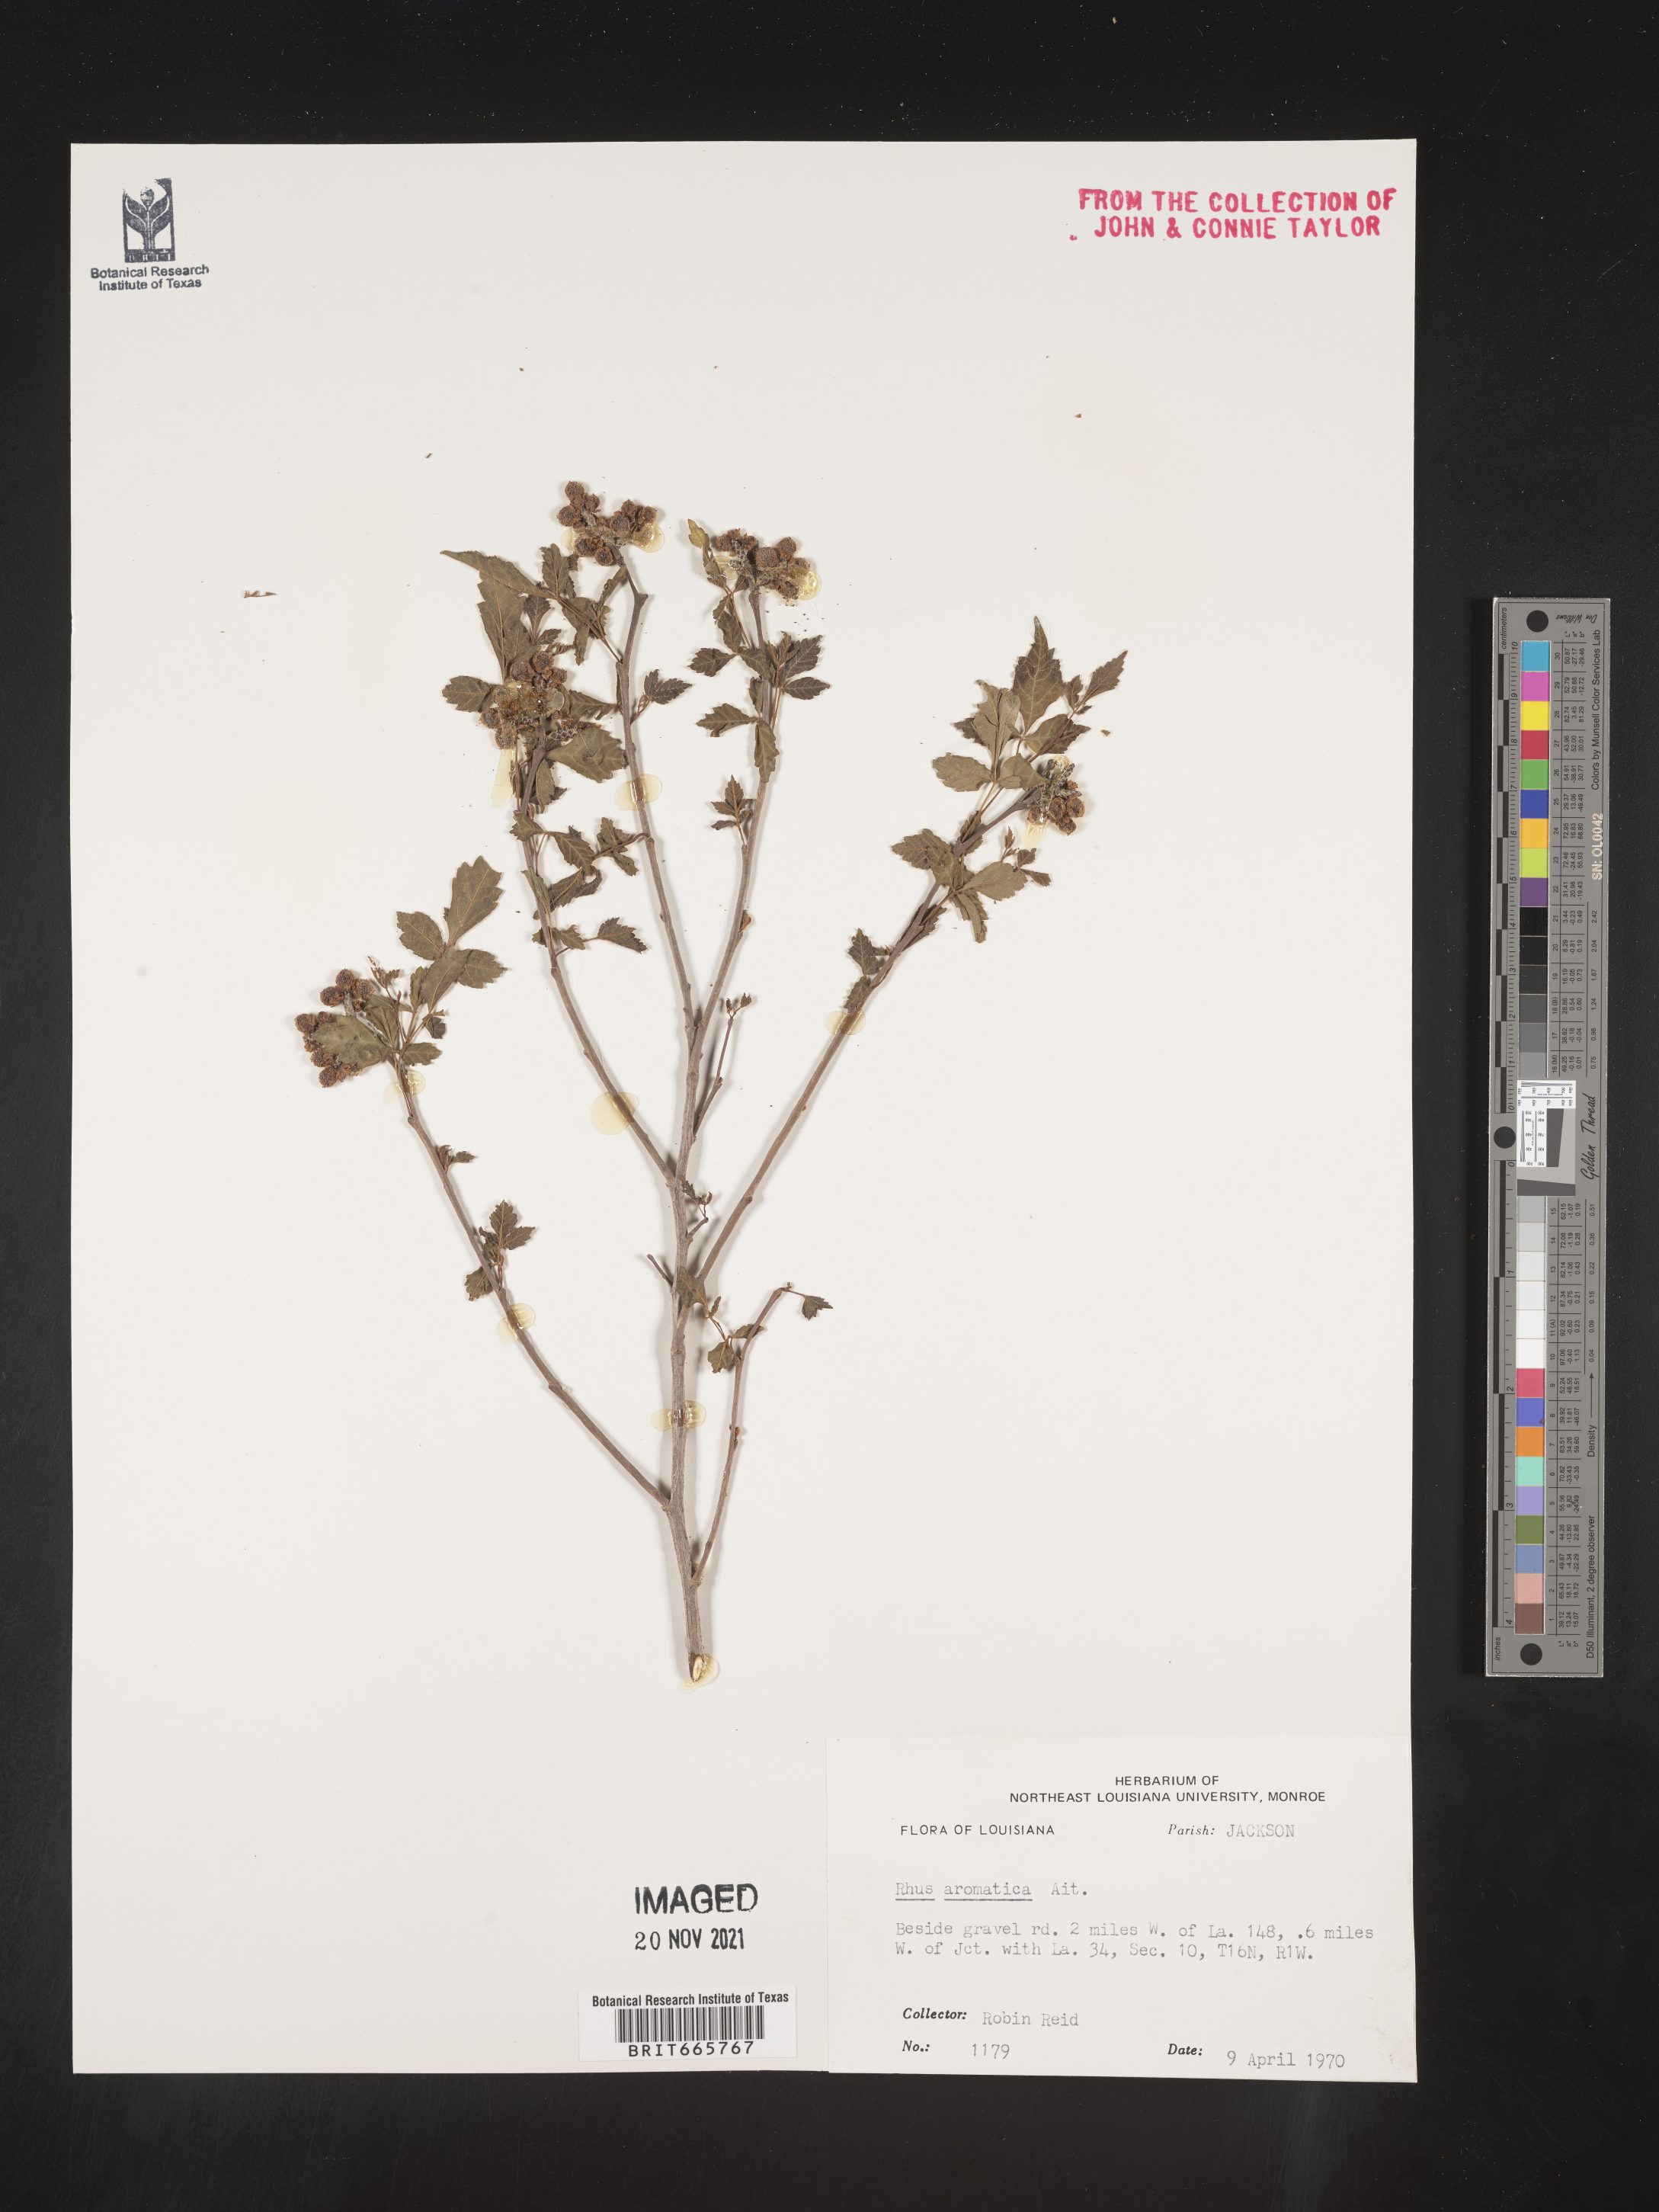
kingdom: Plantae
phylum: Tracheophyta
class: Magnoliopsida
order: Sapindales
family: Anacardiaceae
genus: Rhus
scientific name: Rhus aromatica
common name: Aromatic sumac
